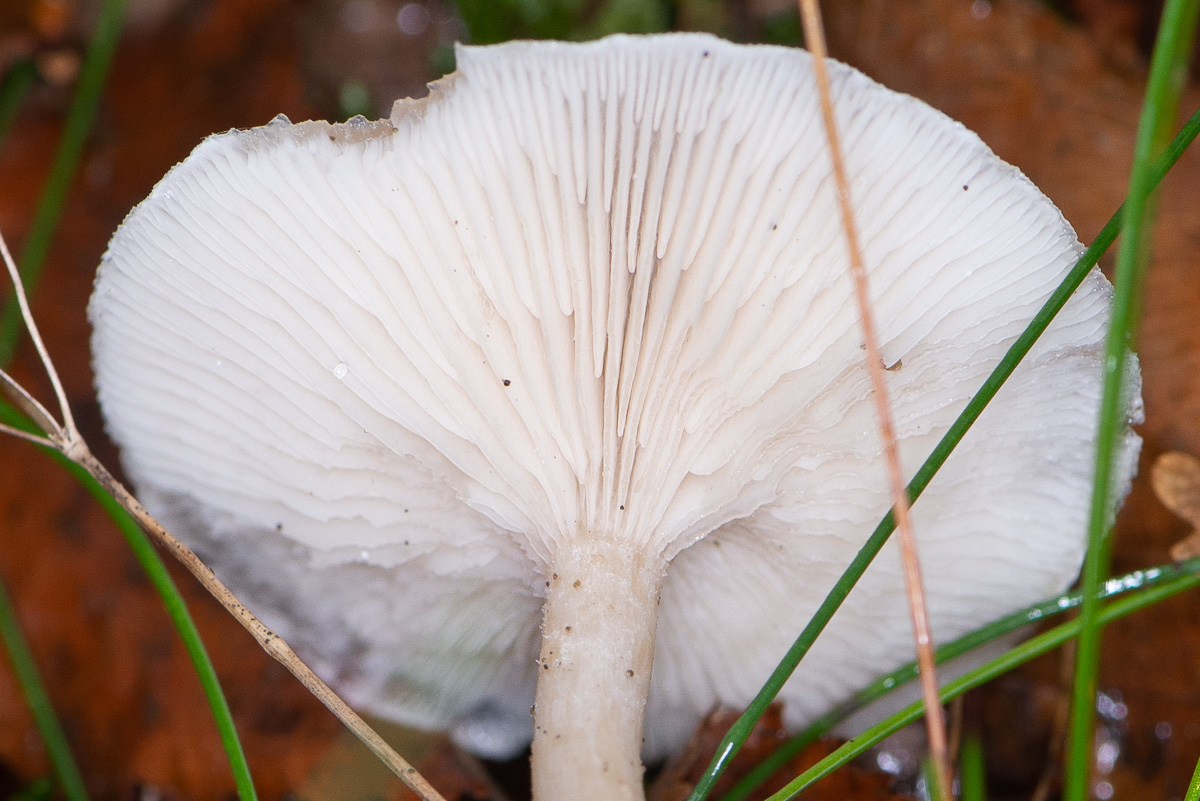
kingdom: Fungi
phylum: Basidiomycota
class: Agaricomycetes
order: Agaricales
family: Tricholomataceae
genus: Clitocybe
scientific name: Clitocybe
